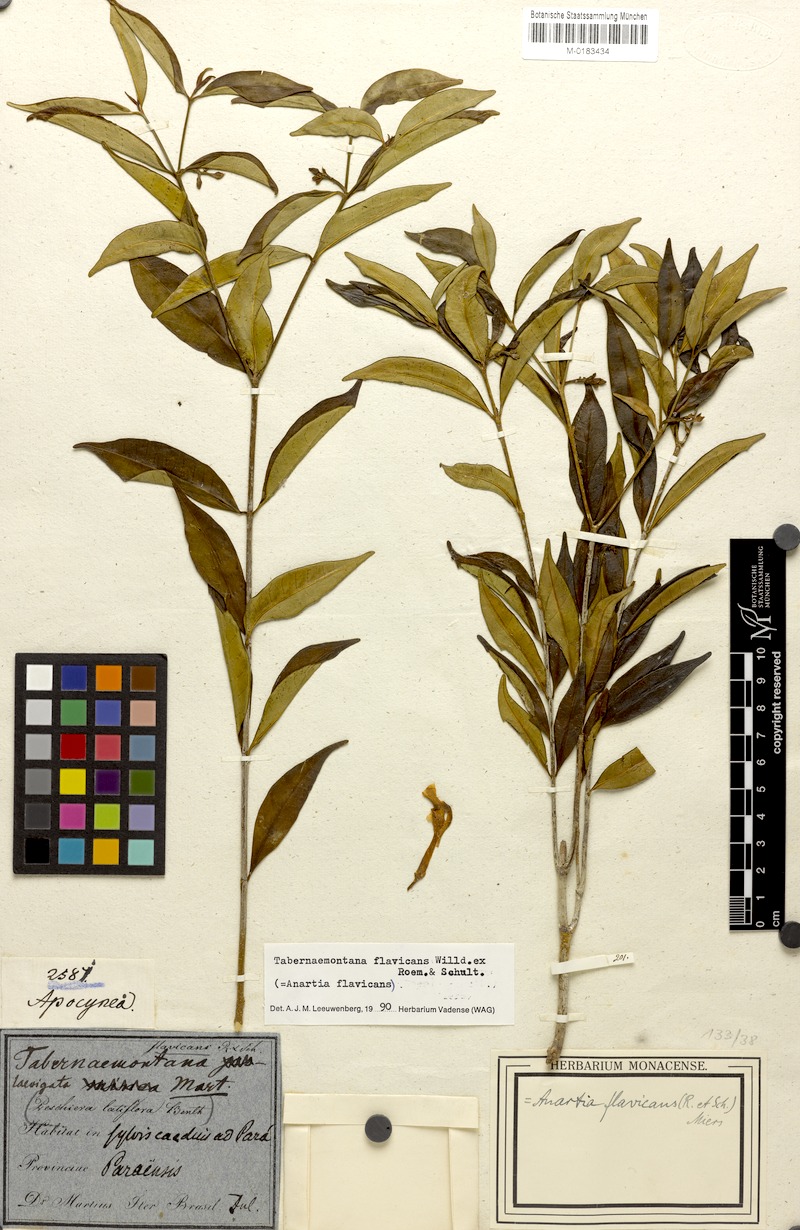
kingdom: Plantae
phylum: Tracheophyta
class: Magnoliopsida
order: Gentianales
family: Apocynaceae
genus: Tabernaemontana
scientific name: Tabernaemontana flavicans
